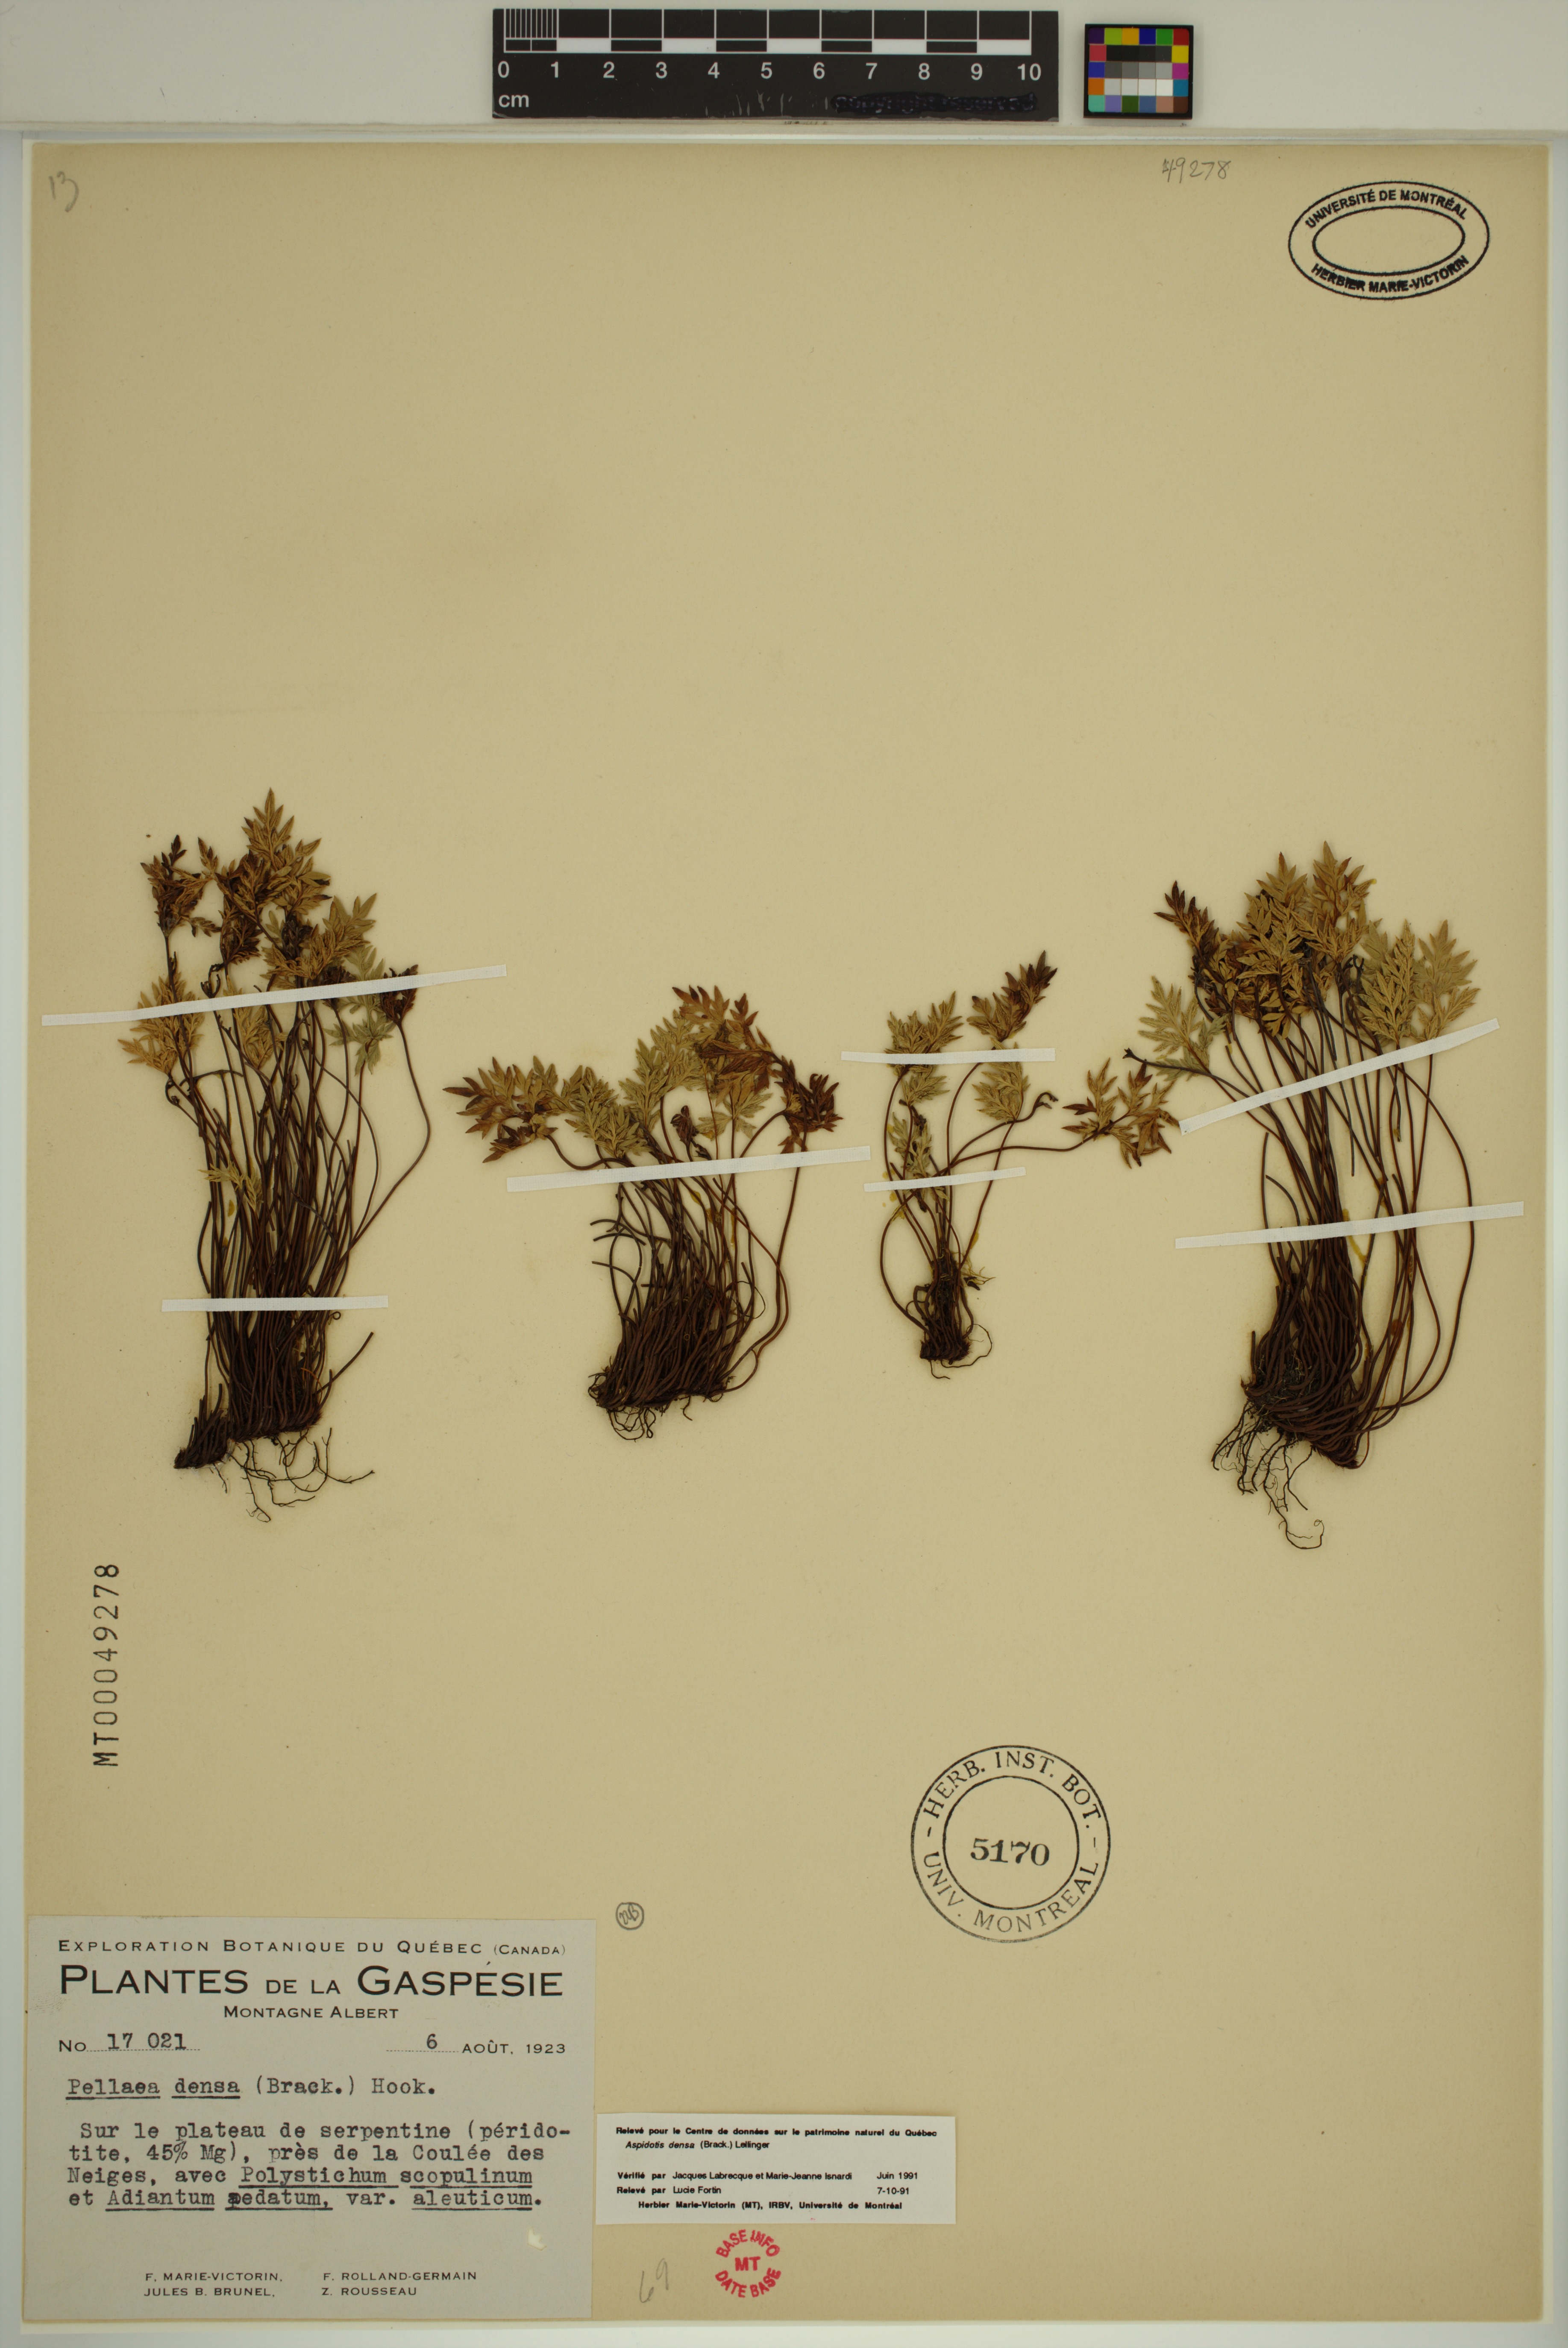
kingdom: Plantae
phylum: Tracheophyta
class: Polypodiopsida
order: Polypodiales
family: Pteridaceae
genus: Aspidotis
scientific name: Aspidotis densa
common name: Indian's dream
